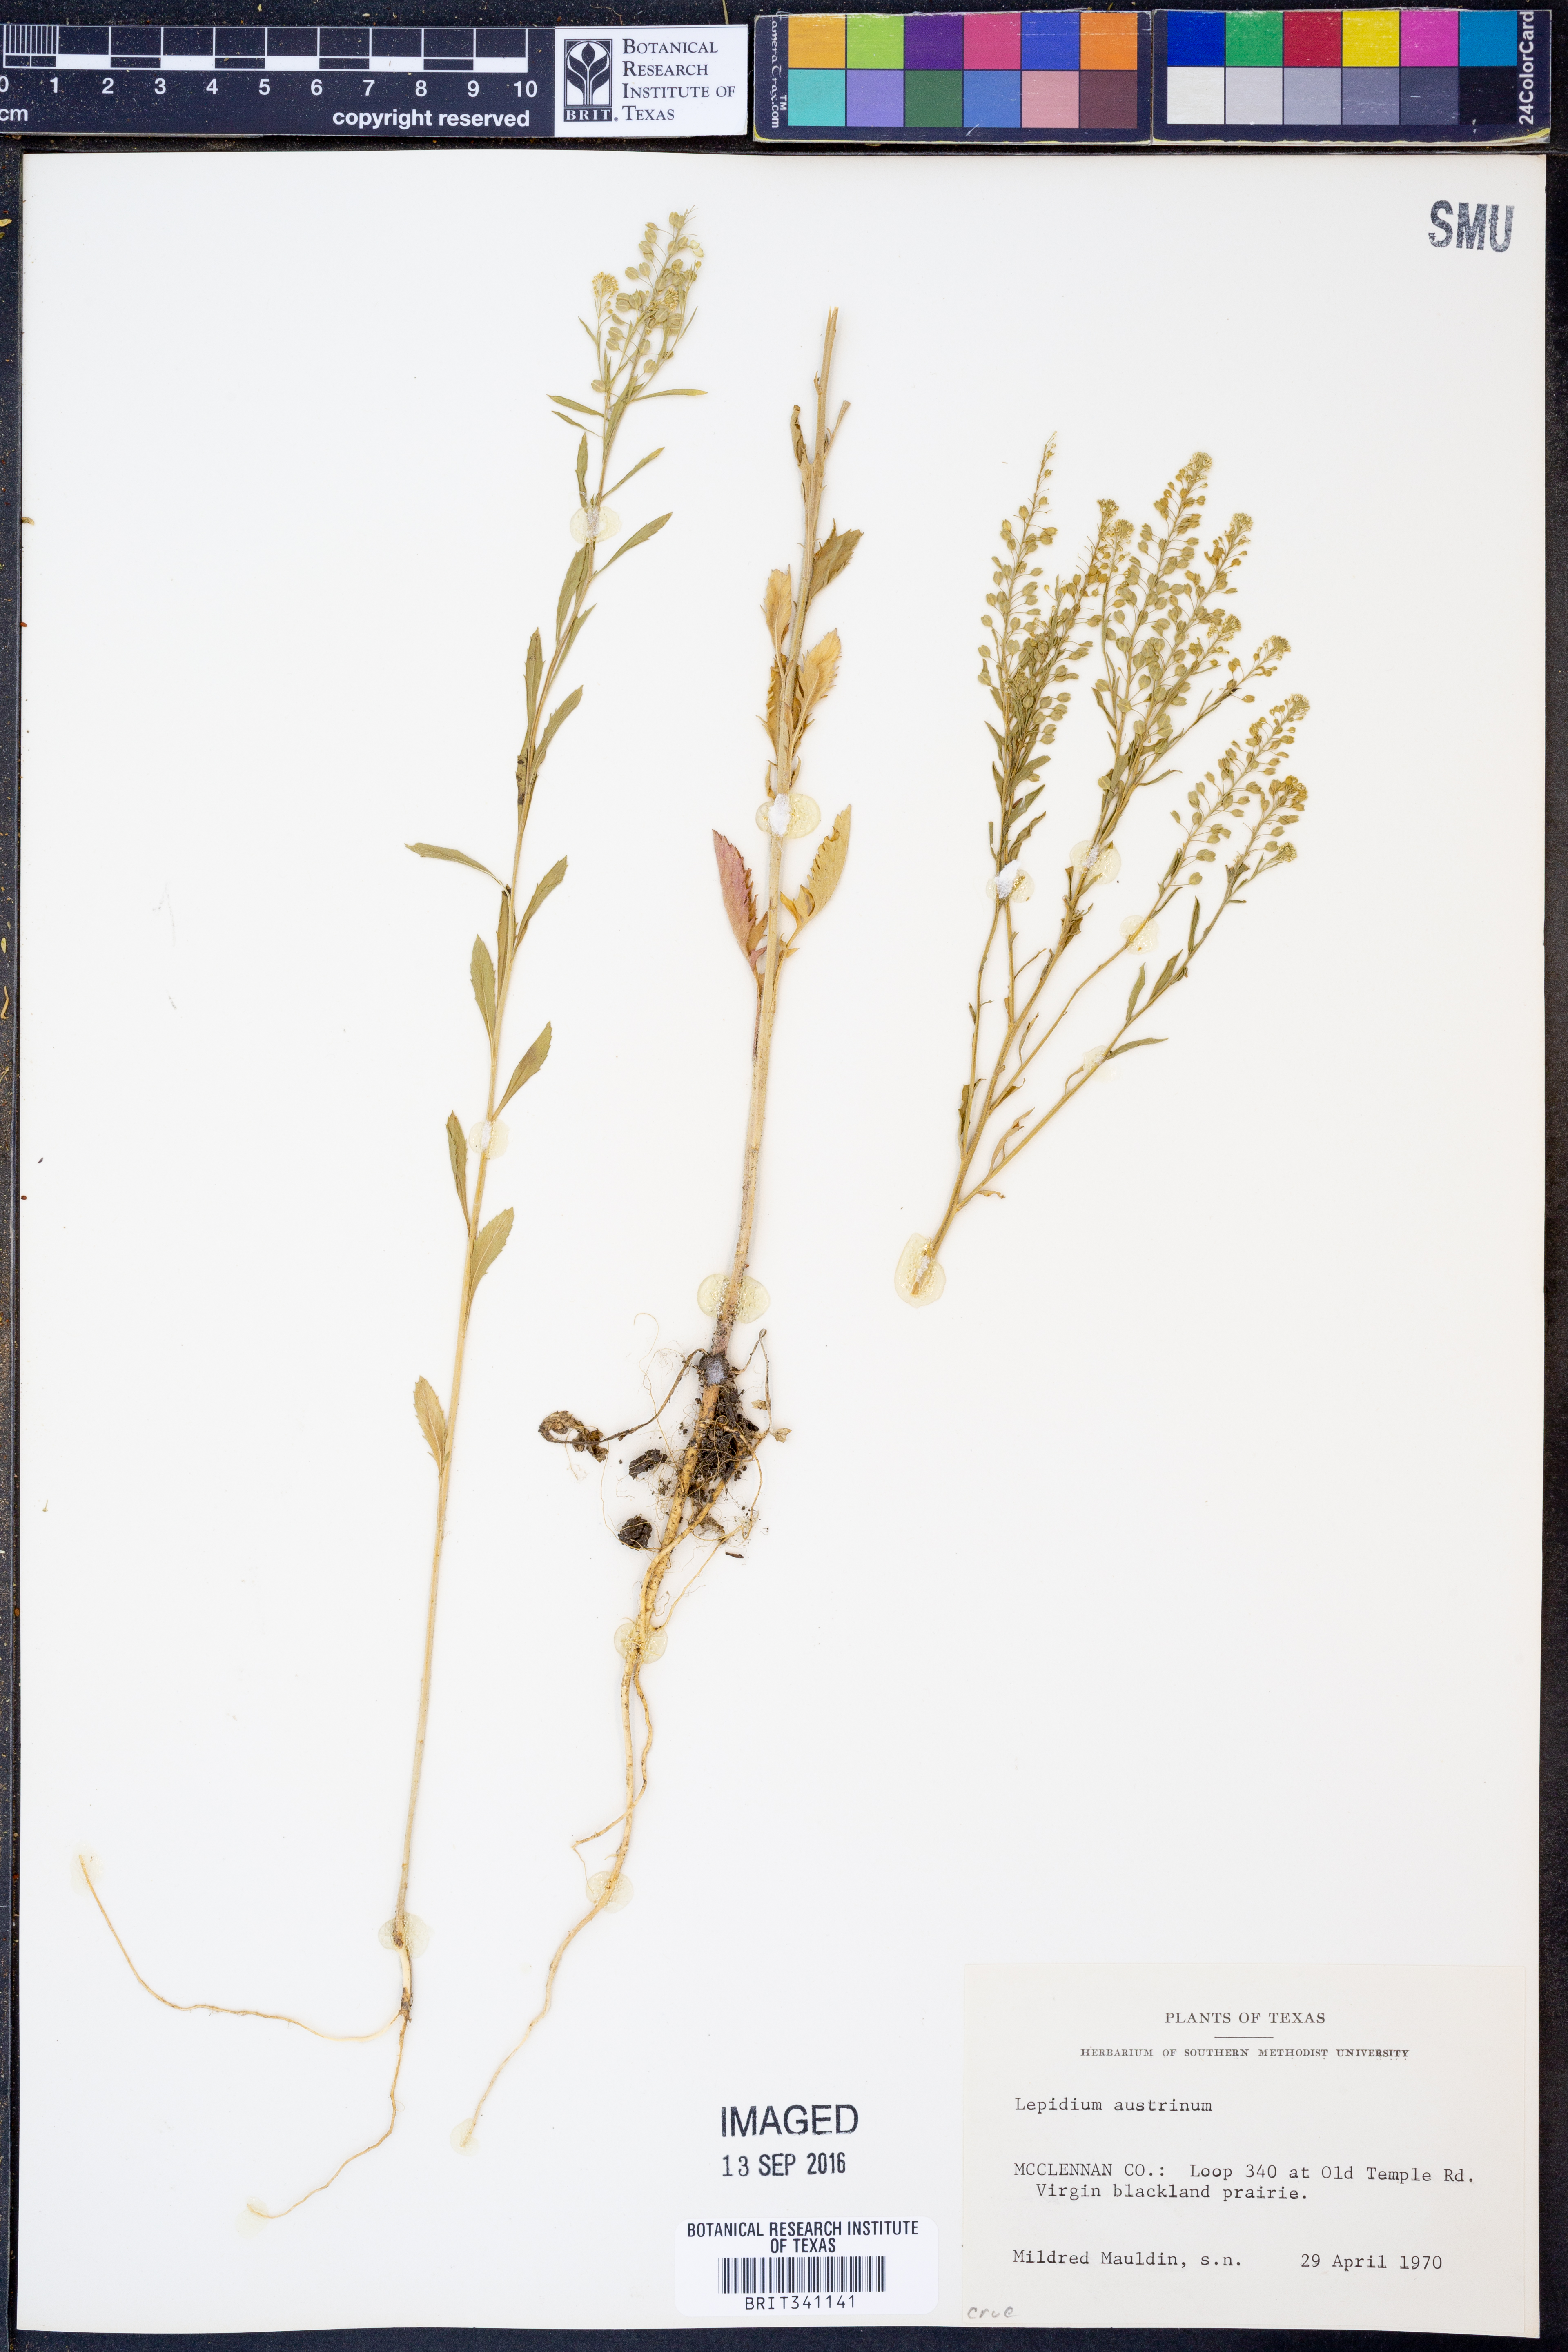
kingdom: Plantae
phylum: Tracheophyta
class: Magnoliopsida
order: Brassicales
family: Brassicaceae
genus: Lepidium
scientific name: Lepidium austrinum
